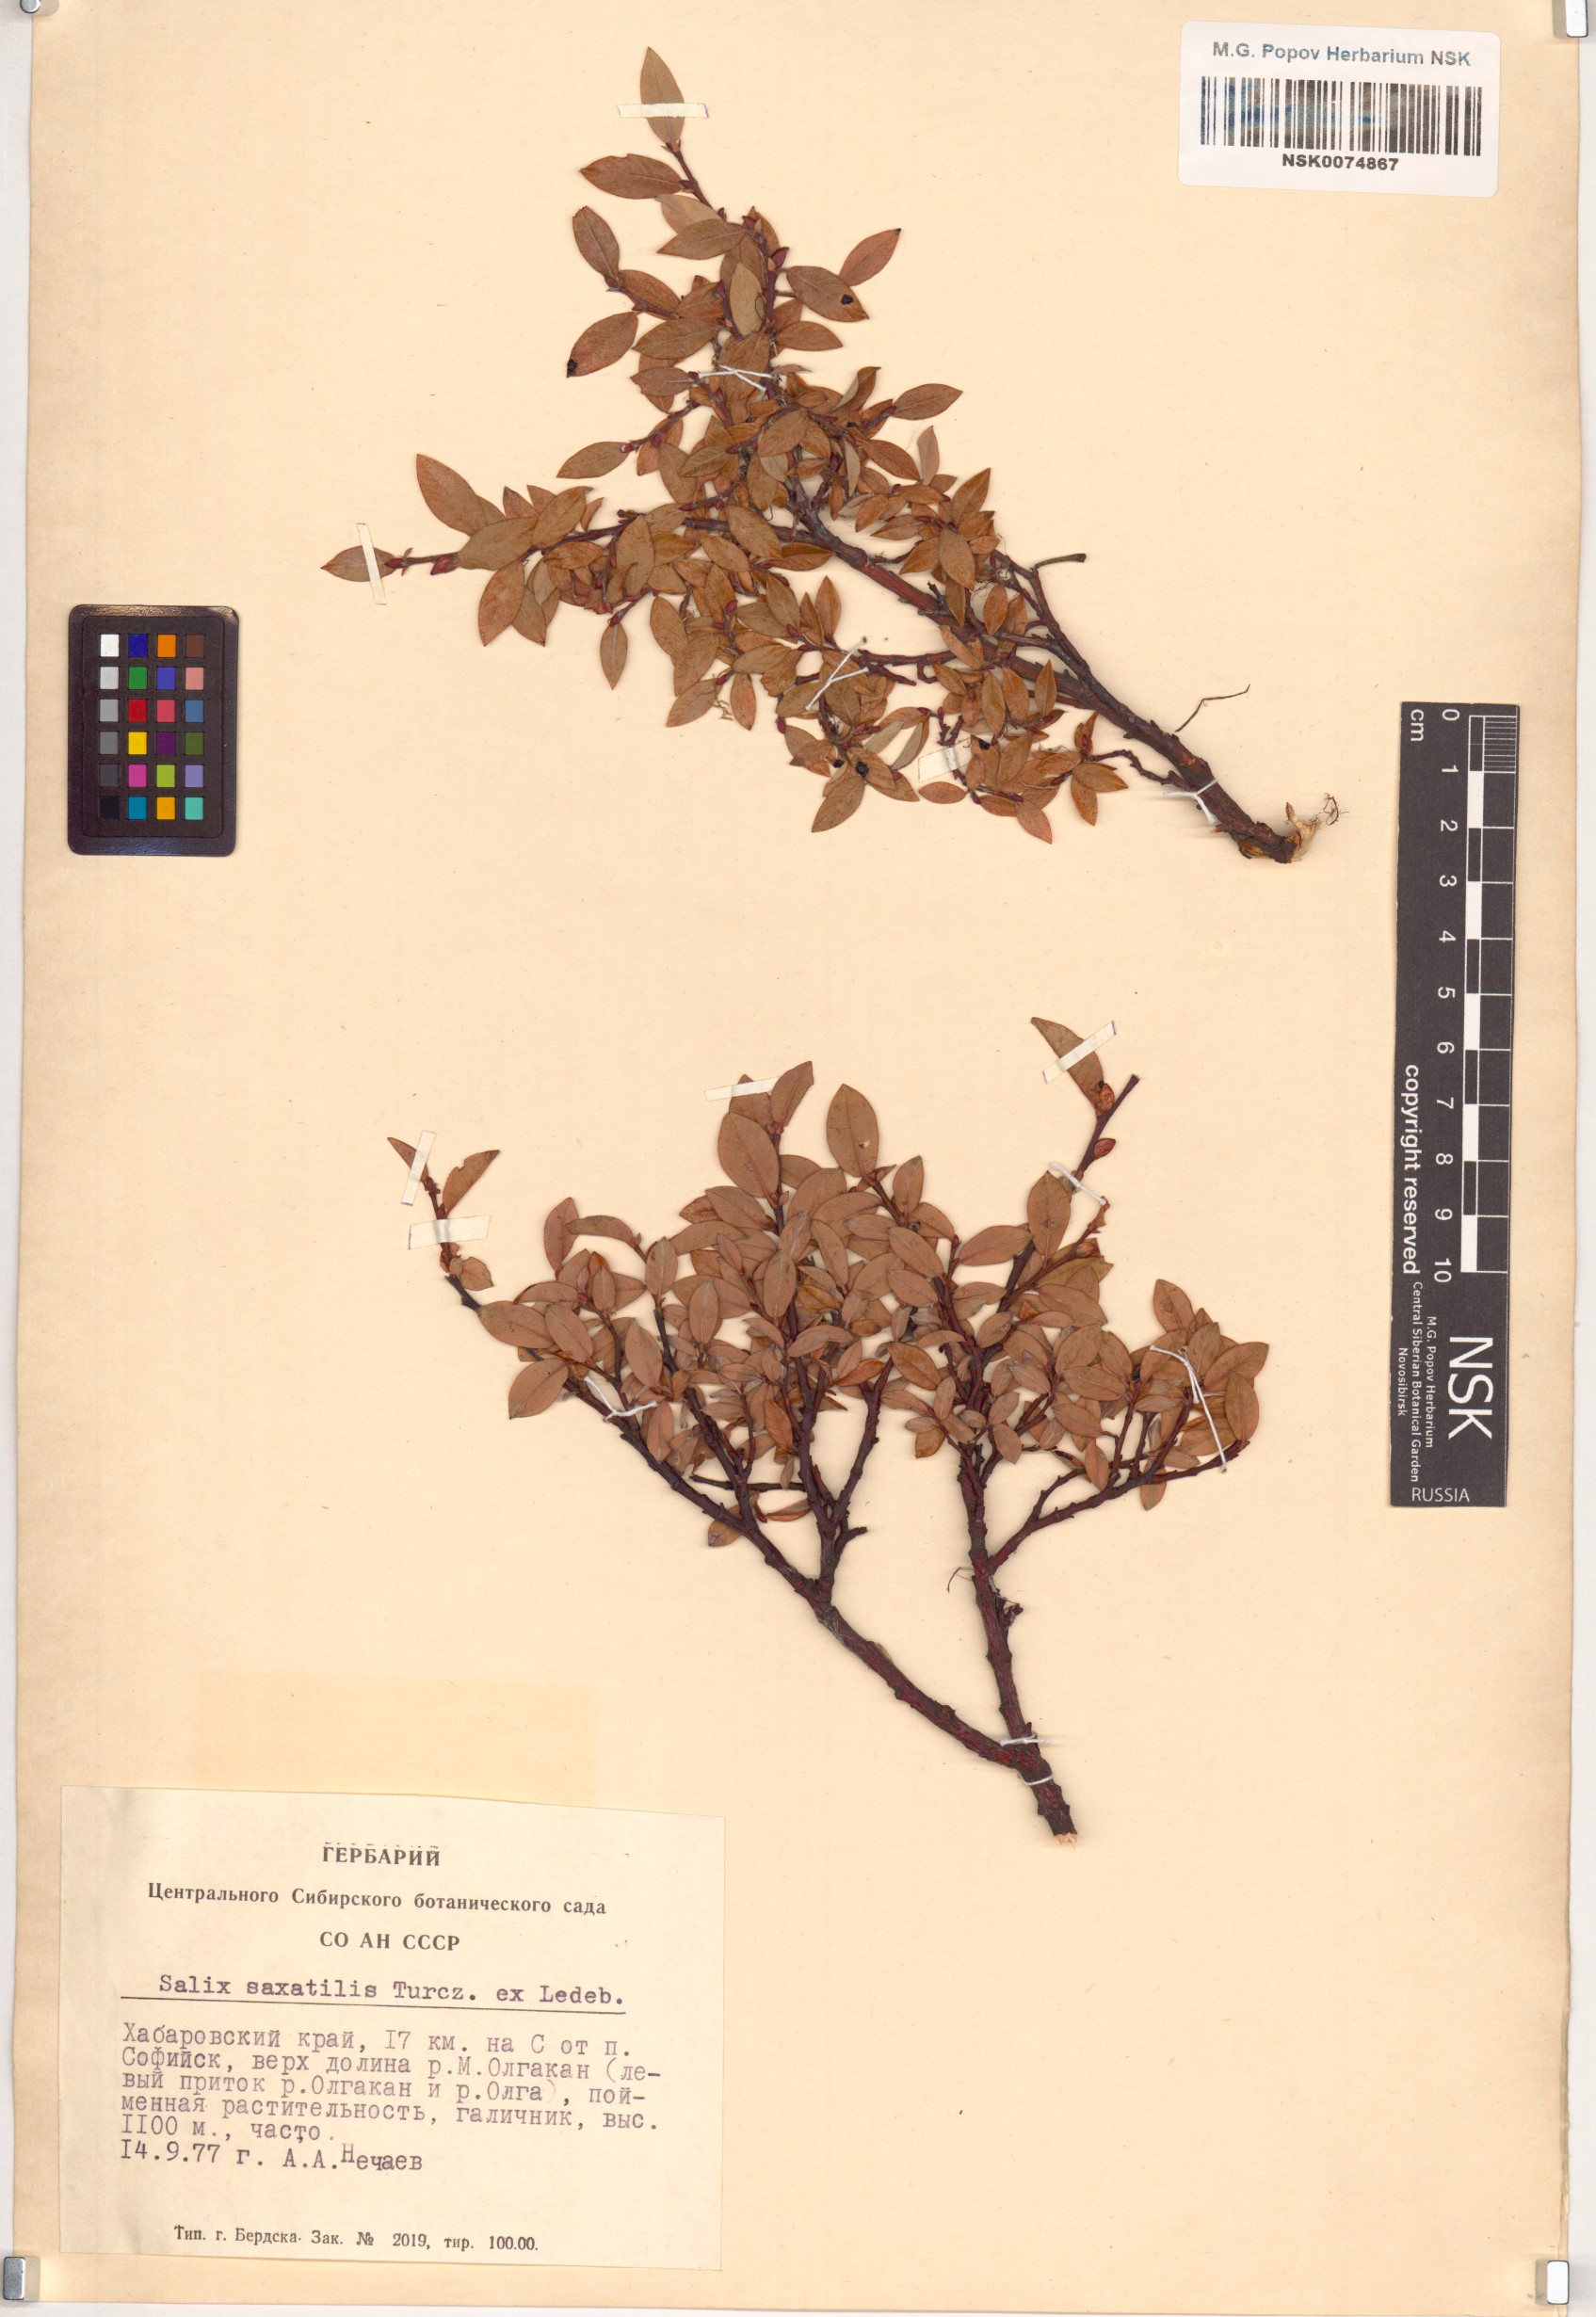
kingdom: Plantae
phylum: Tracheophyta
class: Magnoliopsida
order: Malpighiales
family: Salicaceae
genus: Salix
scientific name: Salix saxatilis
